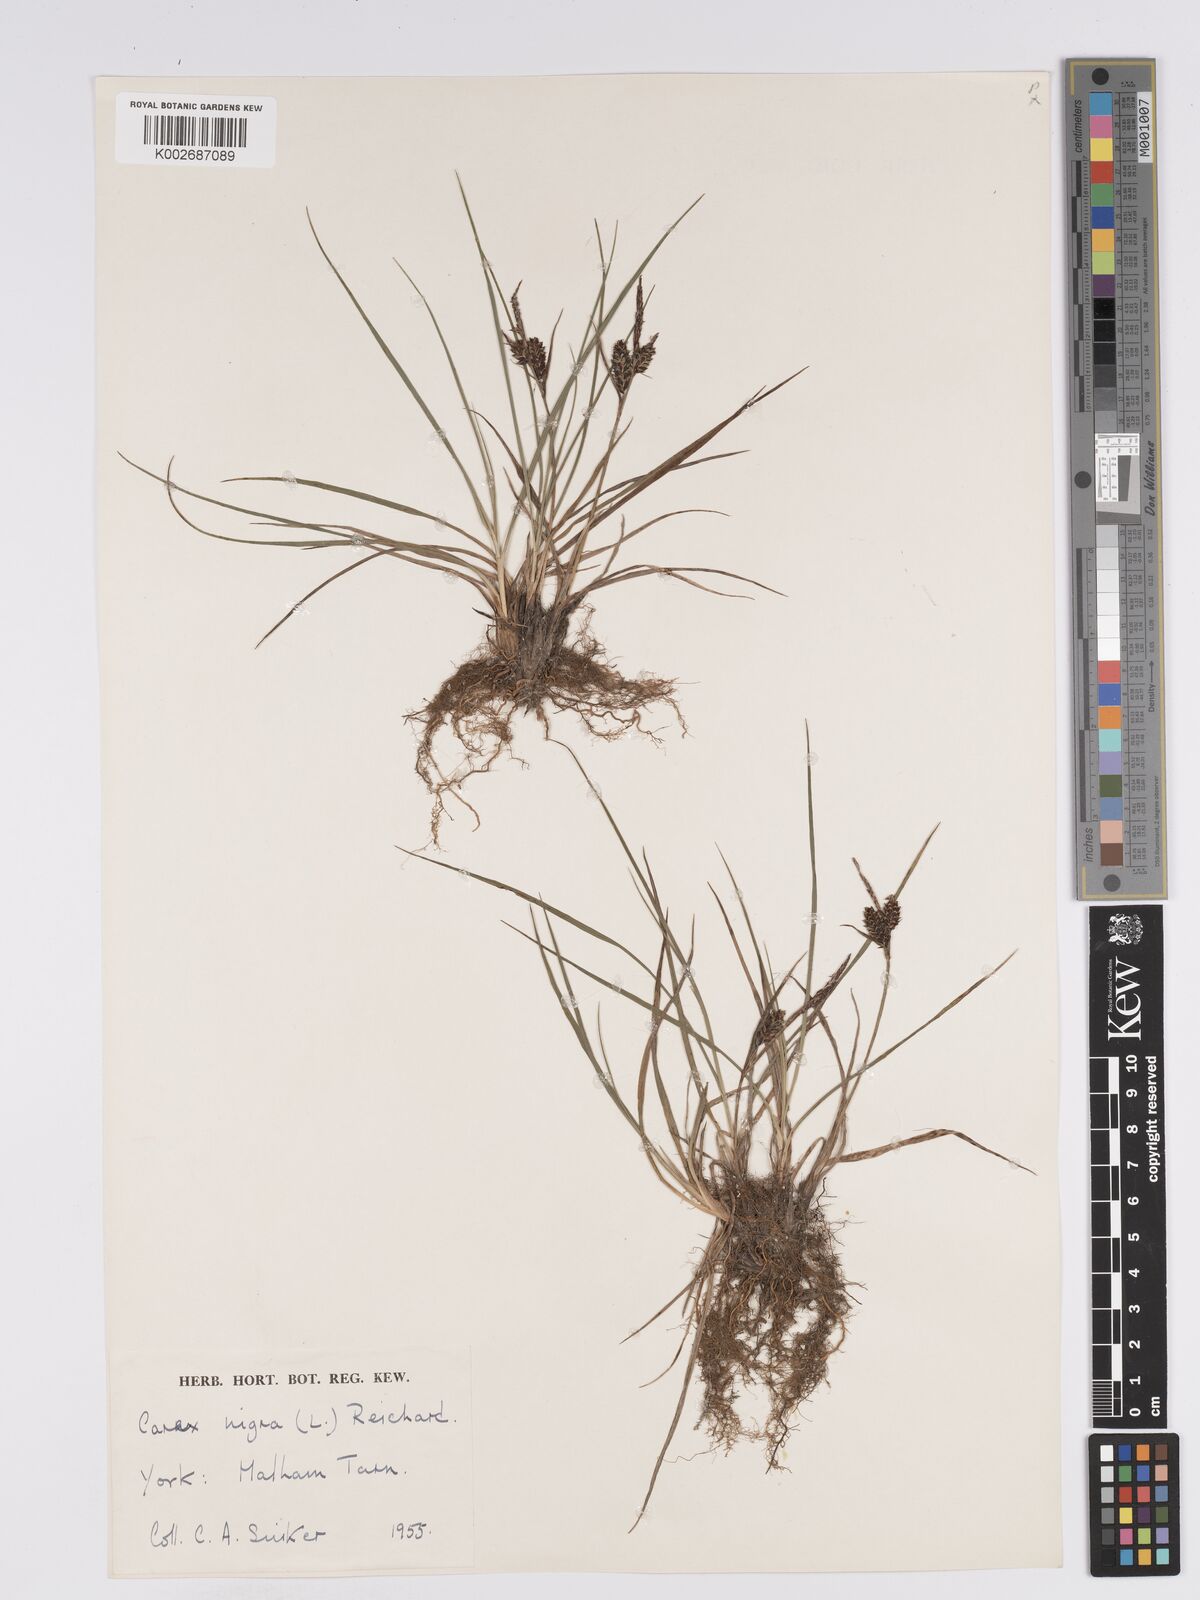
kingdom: Plantae
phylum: Tracheophyta
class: Liliopsida
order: Poales
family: Cyperaceae
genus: Carex
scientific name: Carex nigra
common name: Common sedge
